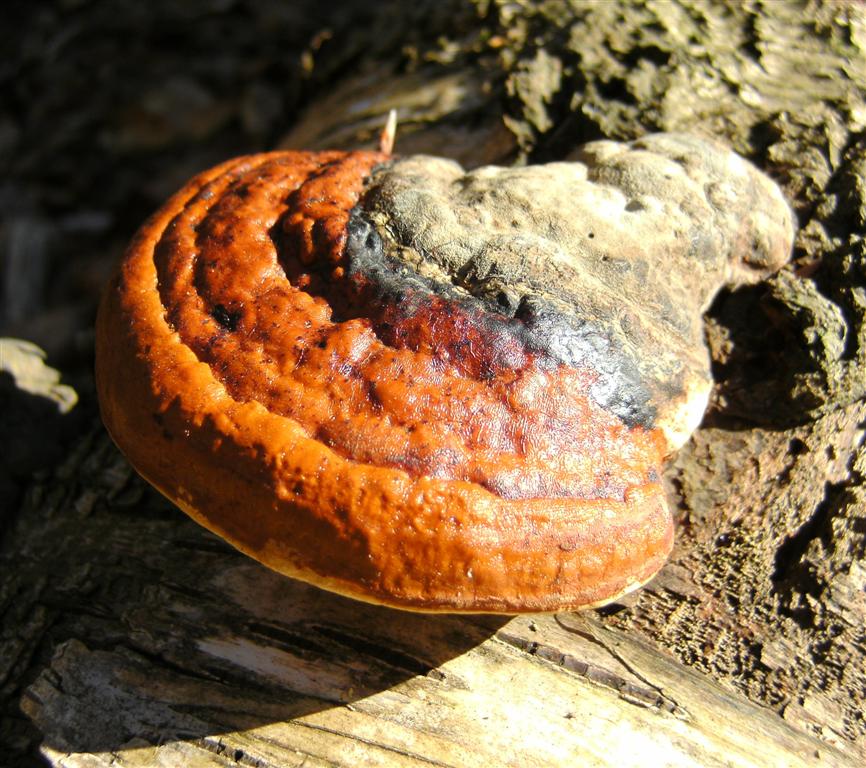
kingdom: Fungi
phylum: Basidiomycota
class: Agaricomycetes
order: Polyporales
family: Fomitopsidaceae
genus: Fomitopsis
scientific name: Fomitopsis pinicola
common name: randbæltet hovporesvamp
